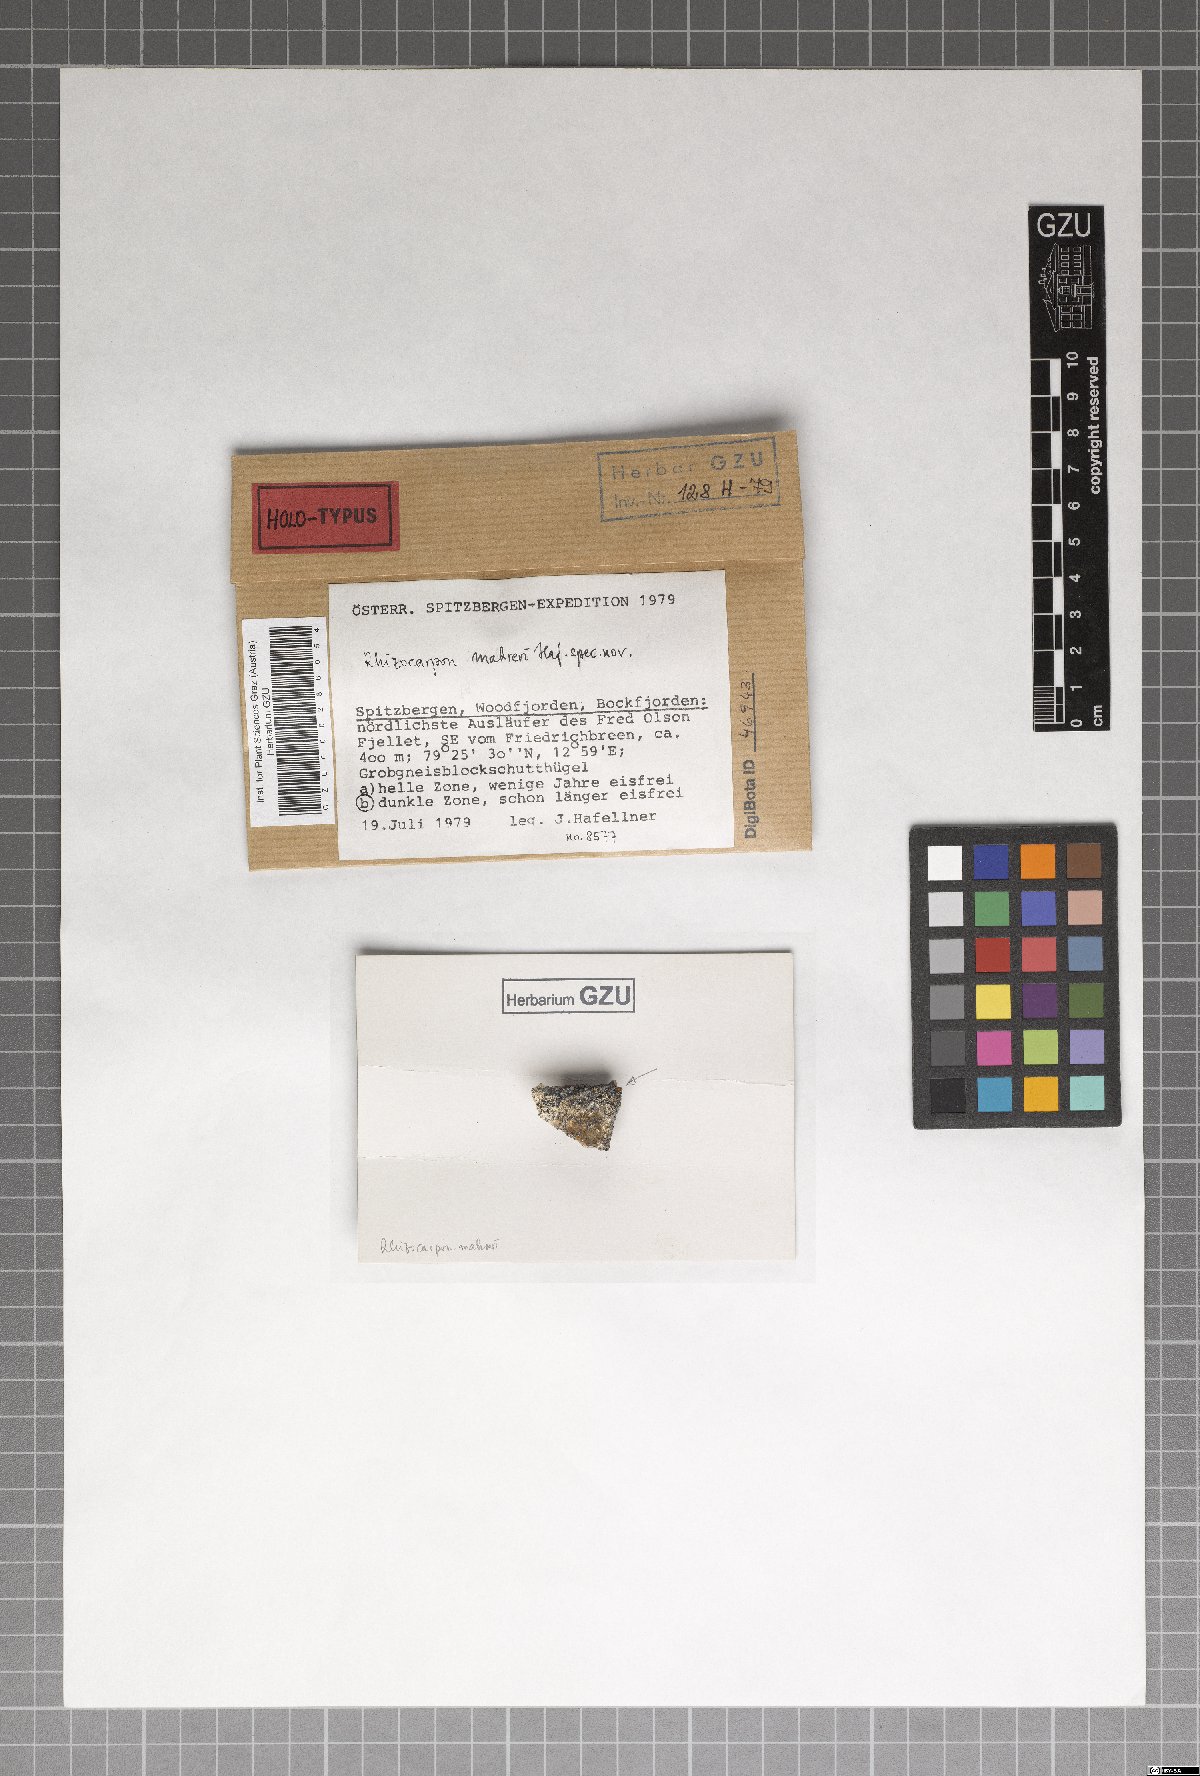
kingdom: Fungi
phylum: Ascomycota
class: Lecanoromycetes
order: Rhizocarpales
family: Rhizocarpaceae
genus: Rhizocarpon
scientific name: Rhizocarpon mahreri
